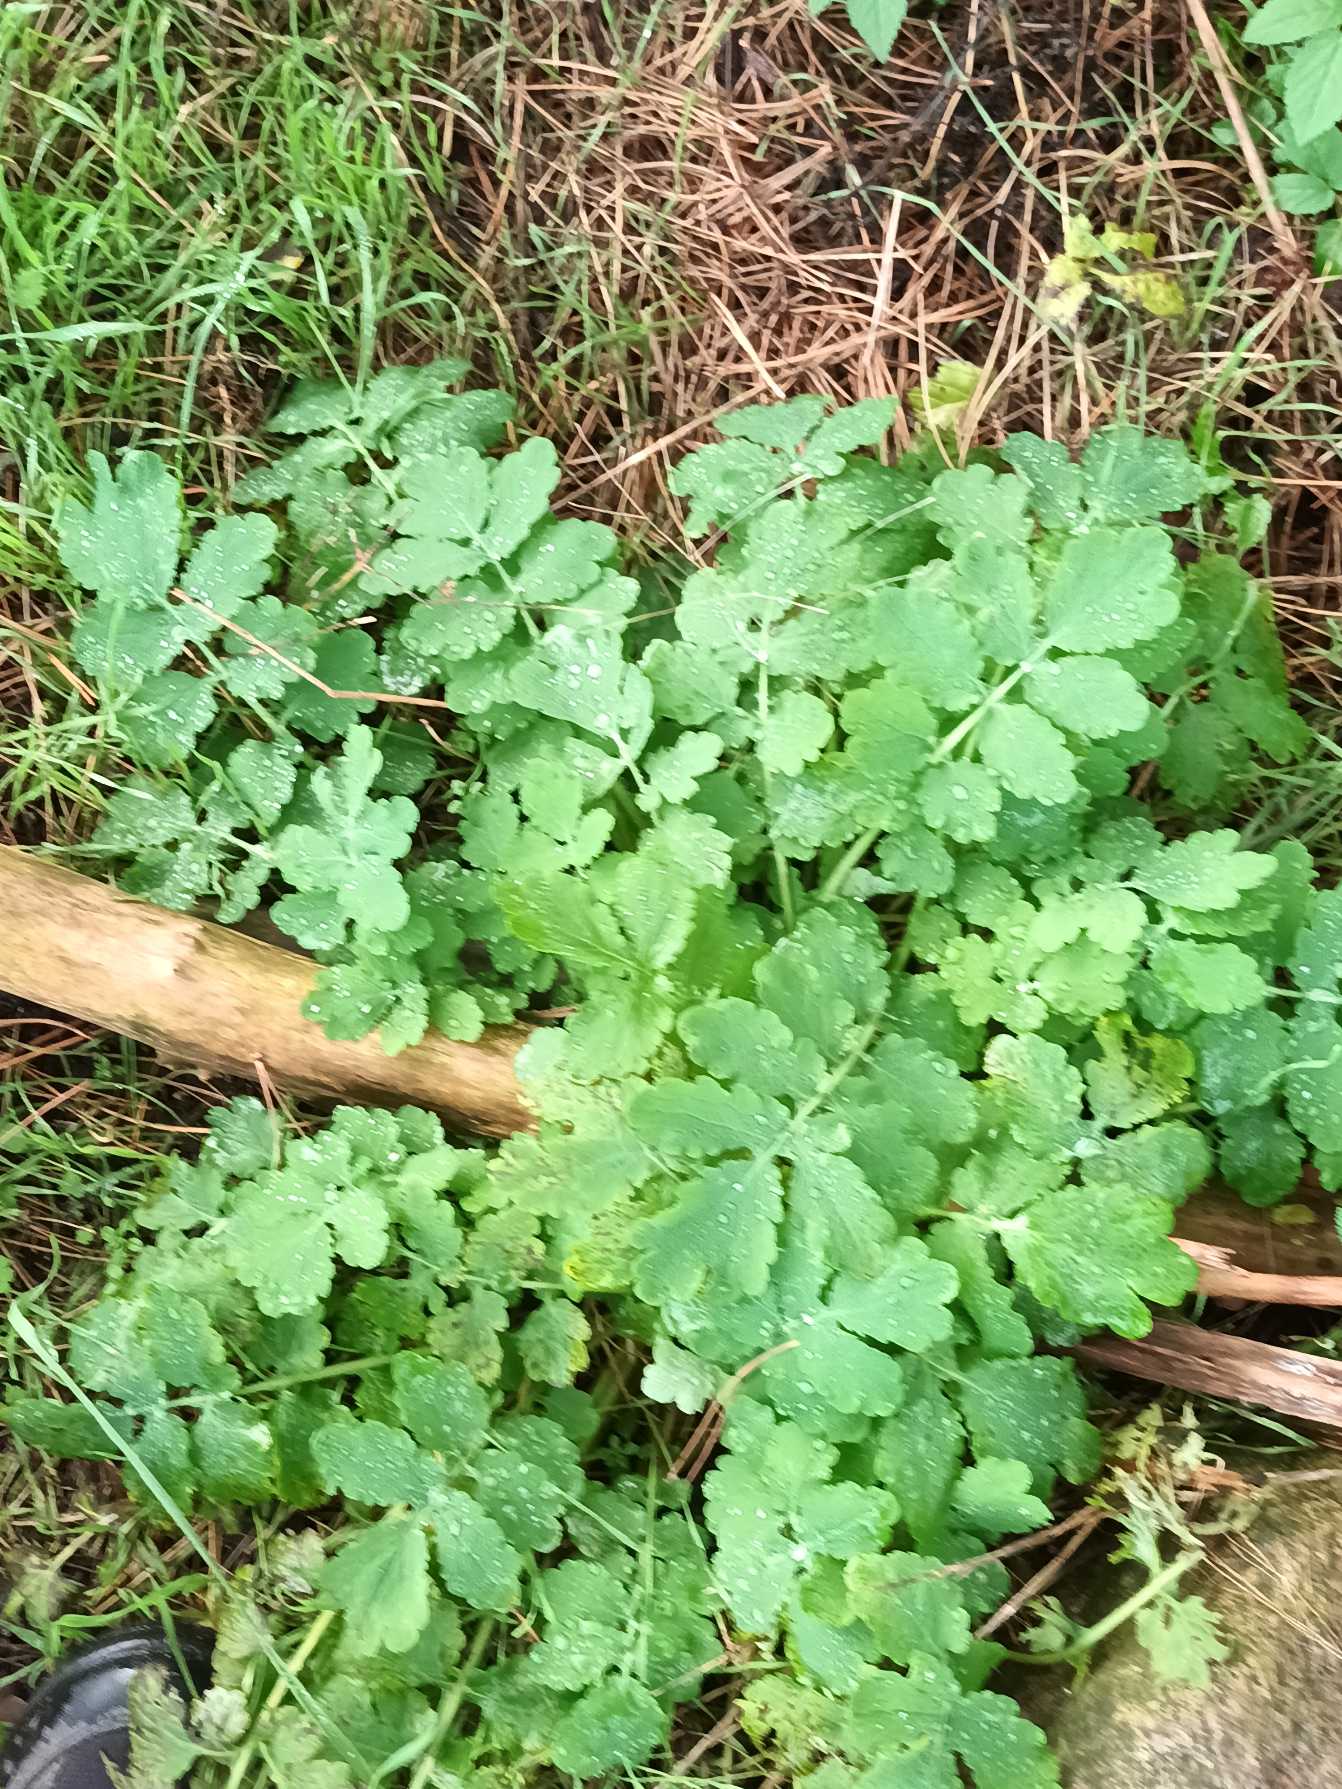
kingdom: Plantae
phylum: Tracheophyta
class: Magnoliopsida
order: Ranunculales
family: Papaveraceae
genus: Chelidonium
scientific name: Chelidonium majus
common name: Svaleurt
